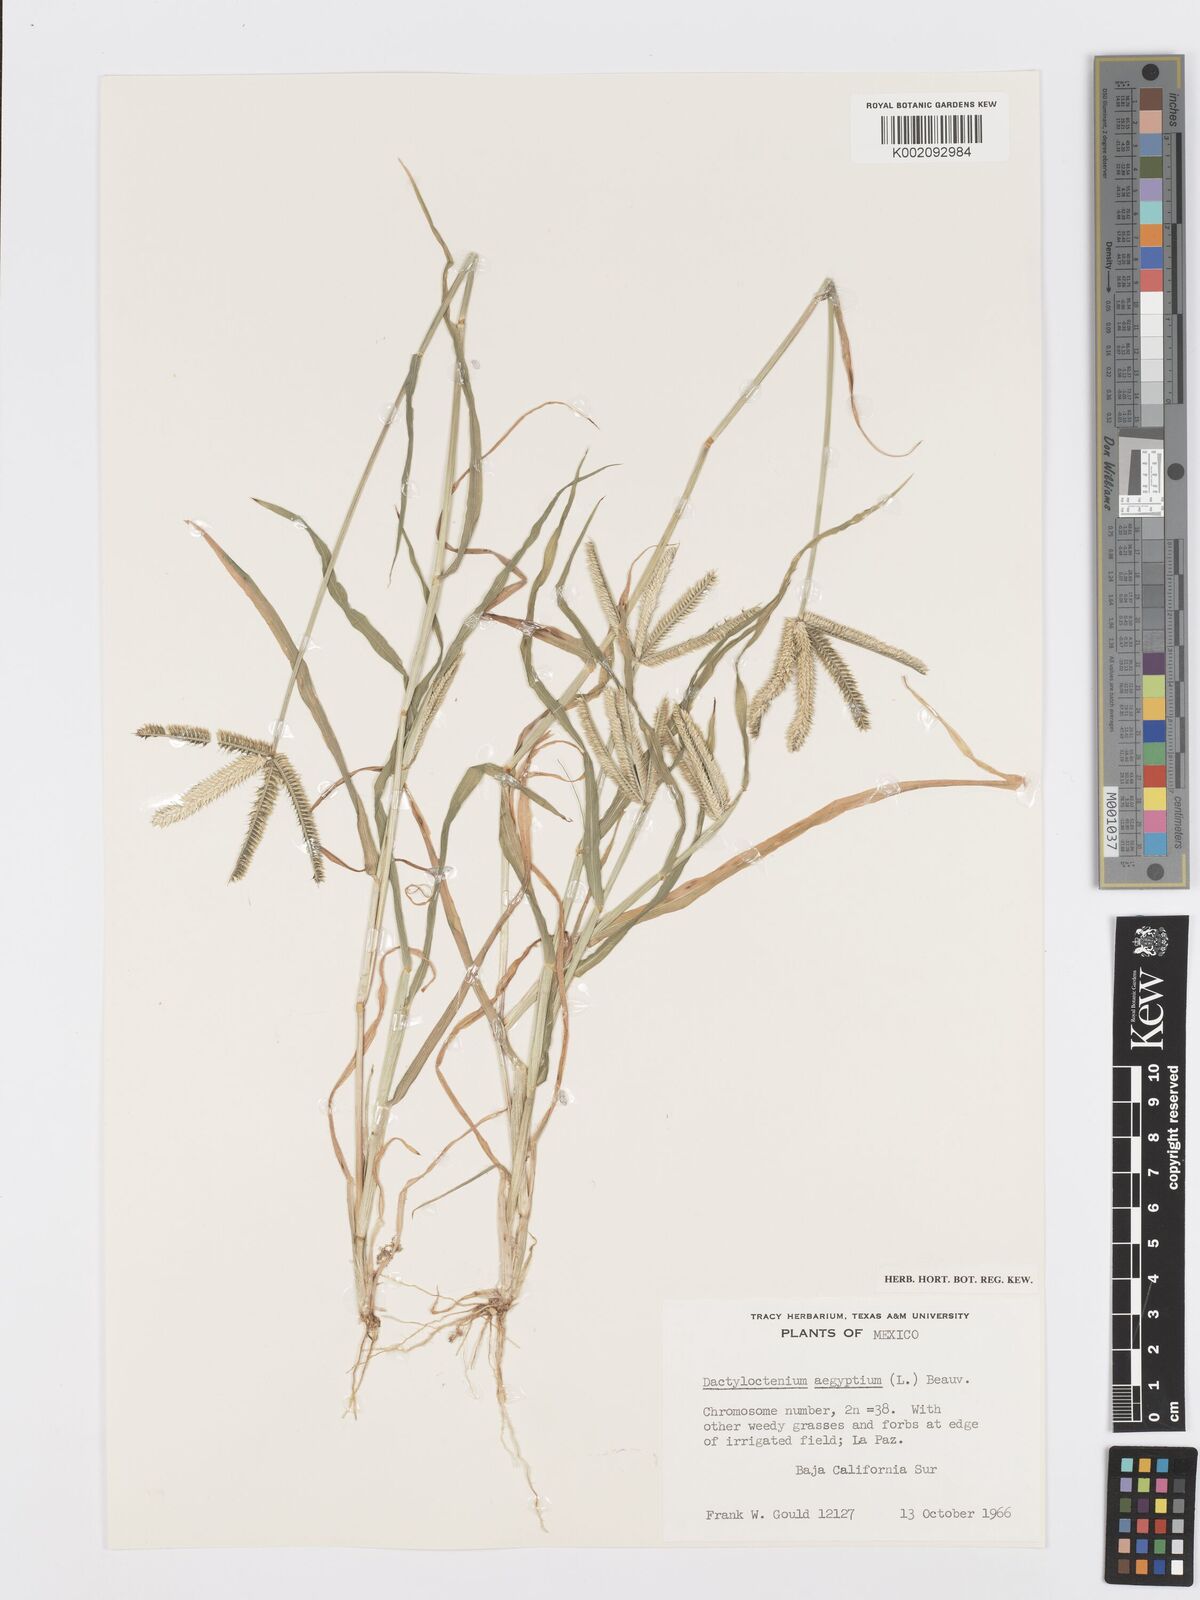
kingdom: Plantae
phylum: Tracheophyta
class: Liliopsida
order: Poales
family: Poaceae
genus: Dactyloctenium
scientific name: Dactyloctenium aegyptium
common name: Egyptian grass
